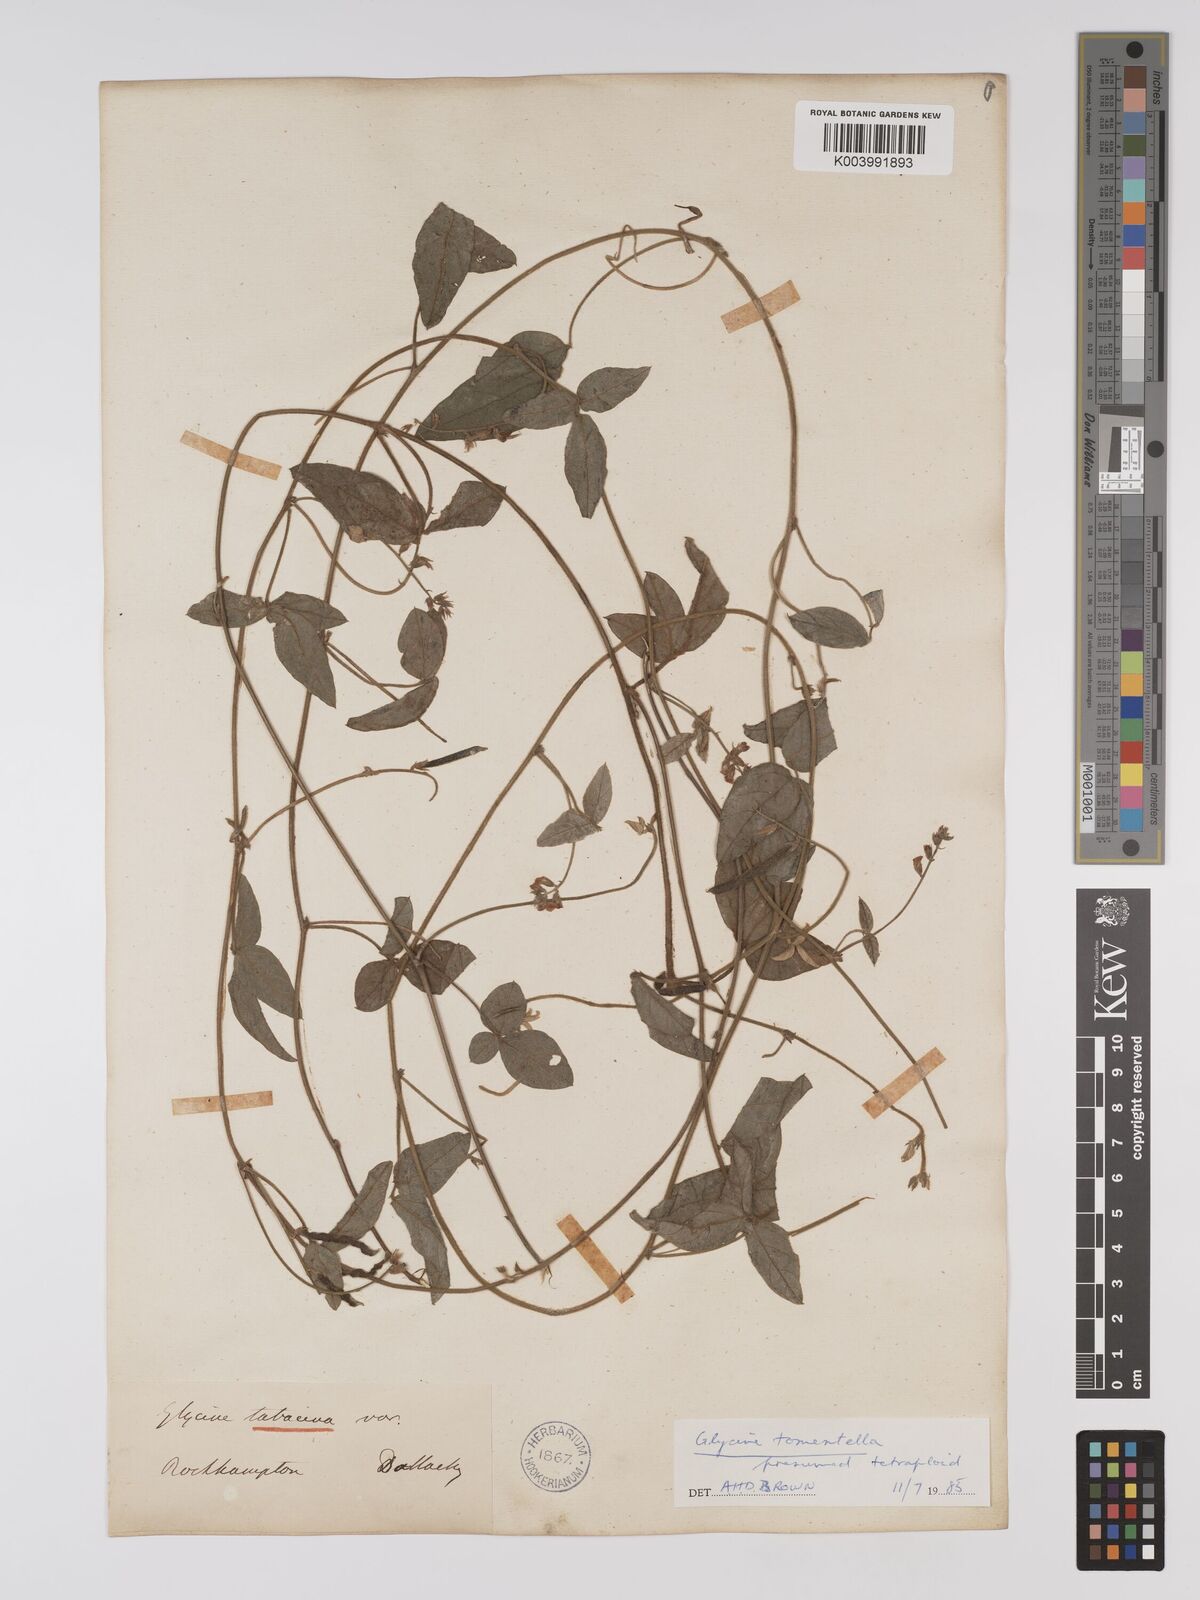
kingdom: Plantae
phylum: Tracheophyta
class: Magnoliopsida
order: Fabales
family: Fabaceae
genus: Glycine
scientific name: Glycine tomentella
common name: Hairy glycine
